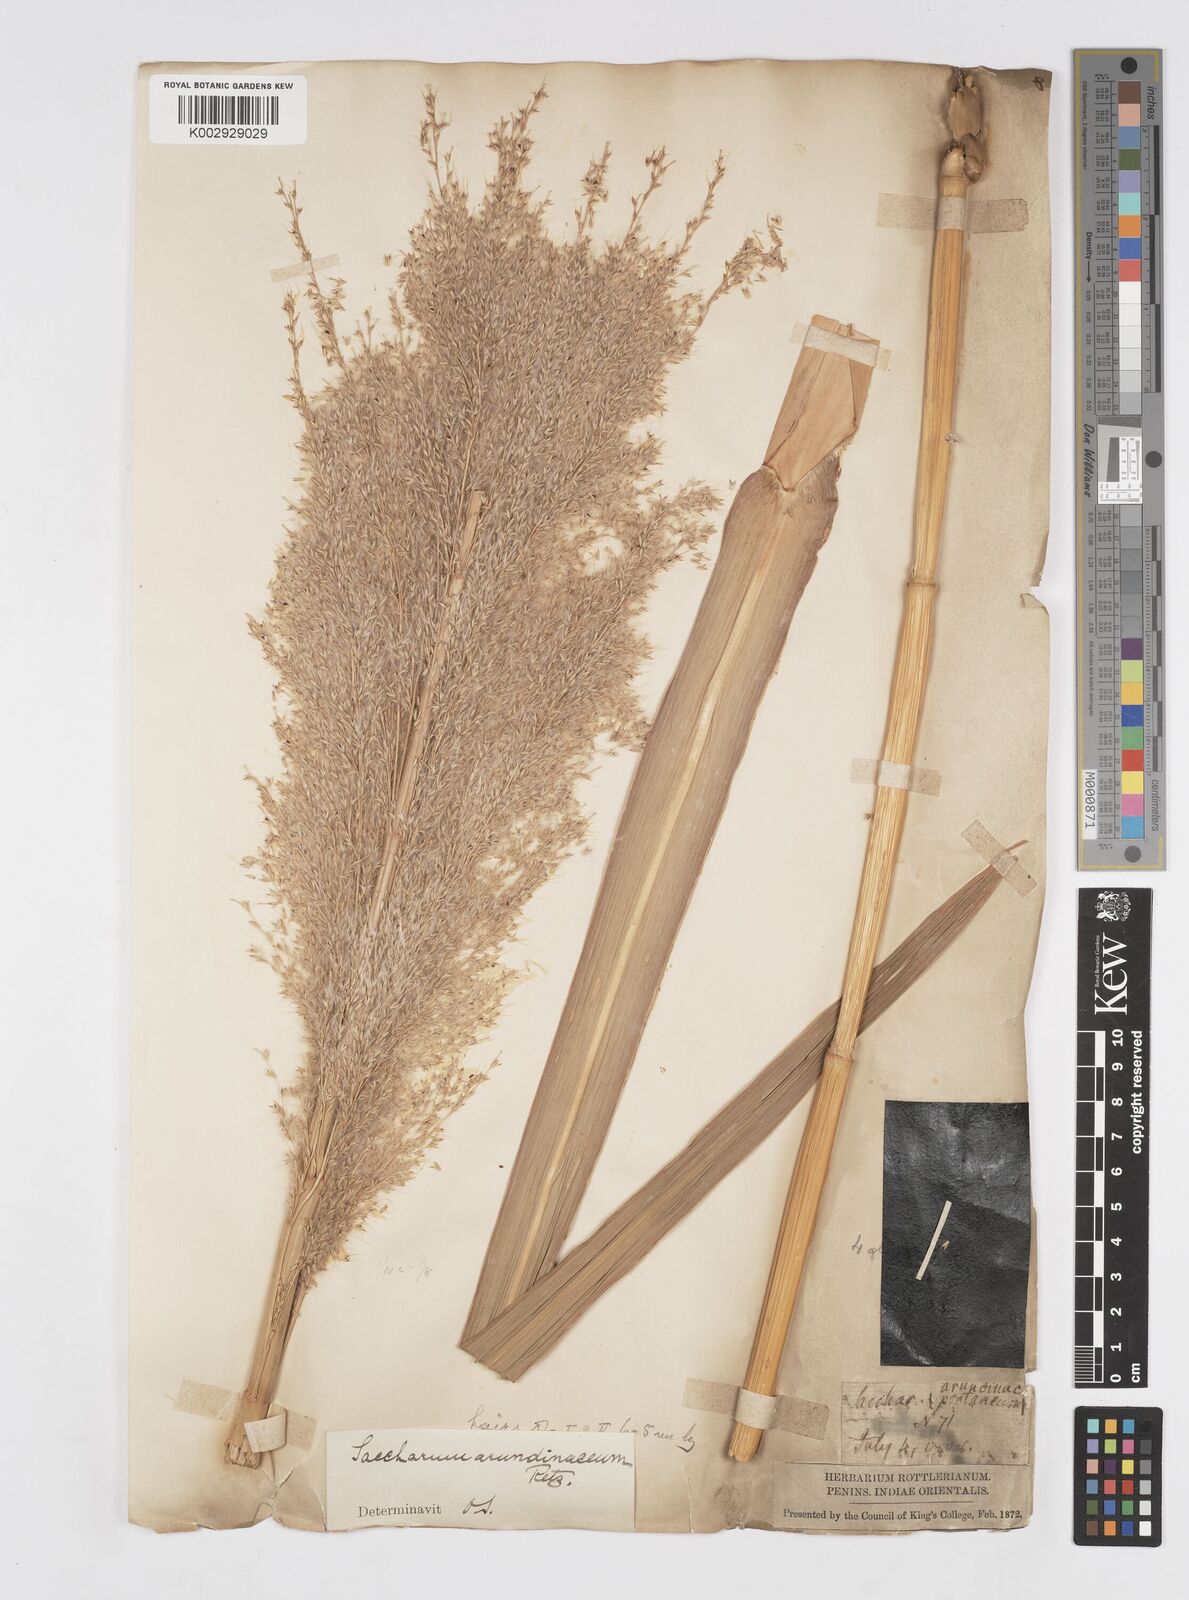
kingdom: Plantae
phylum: Tracheophyta
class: Liliopsida
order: Poales
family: Poaceae
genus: Tripidium
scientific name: Tripidium arundinaceum
